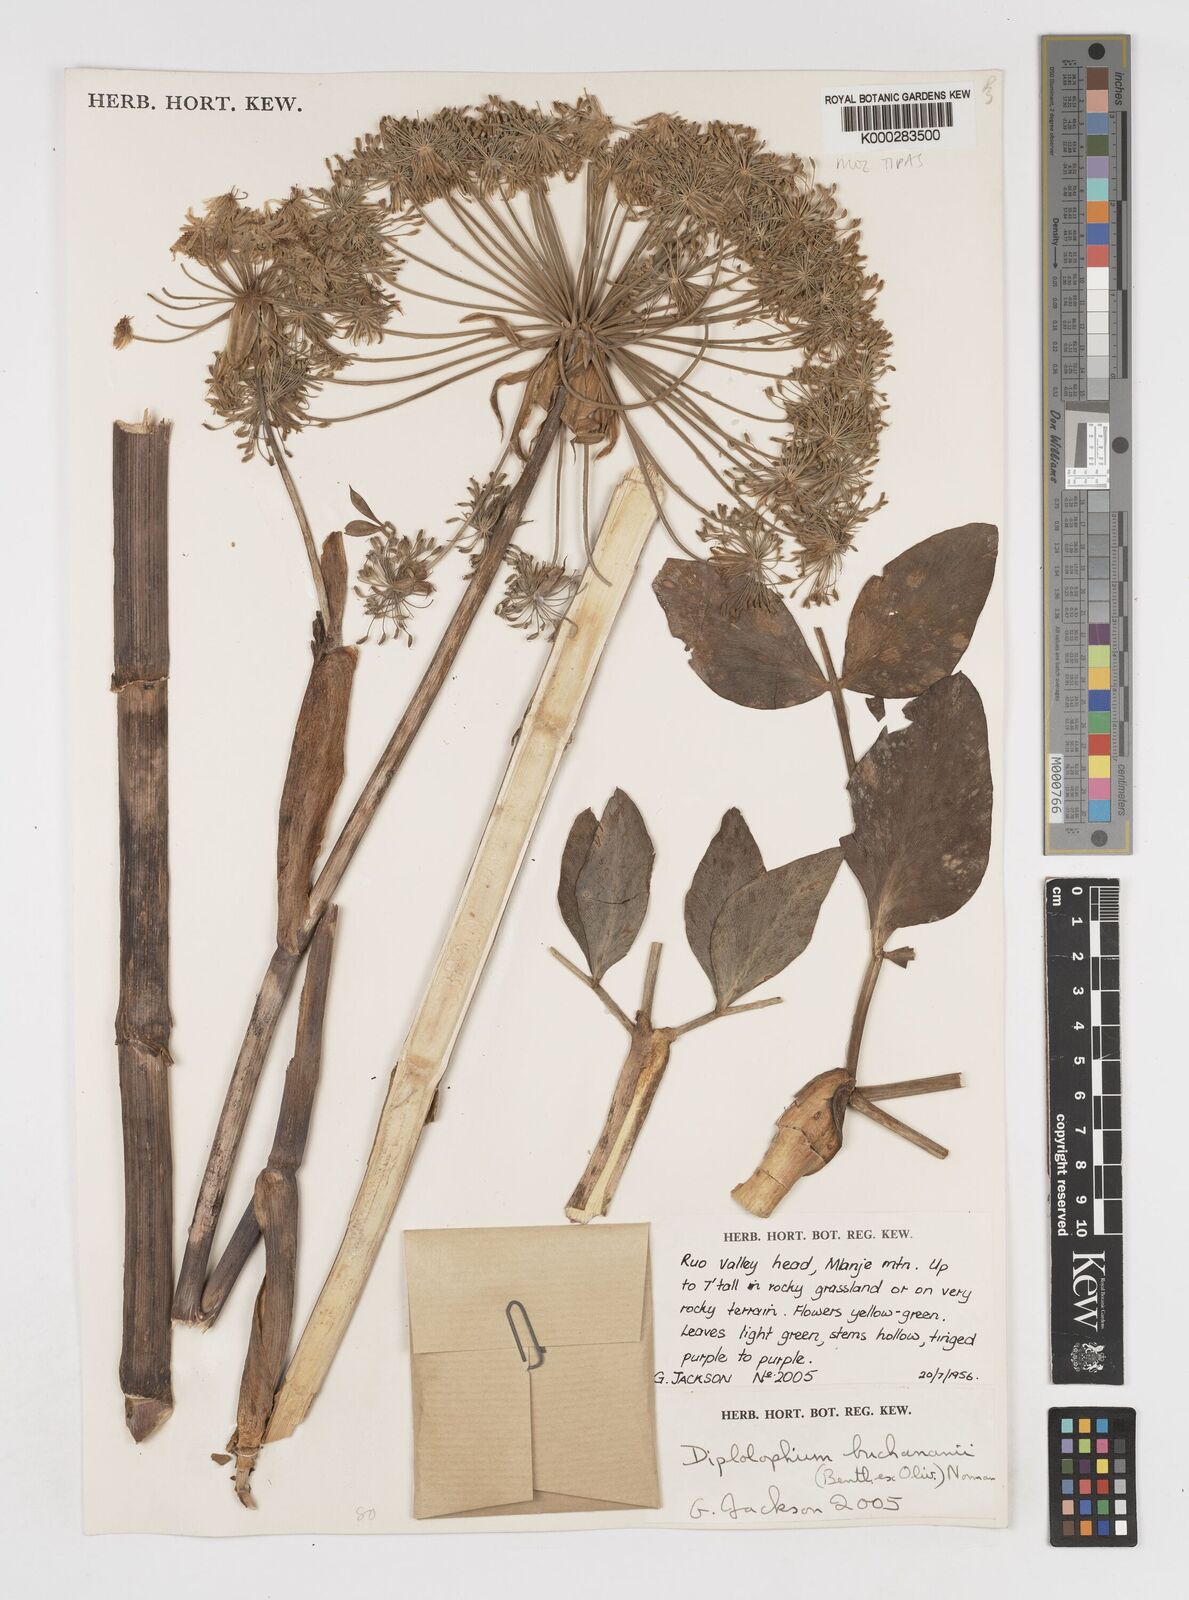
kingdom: Plantae
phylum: Tracheophyta
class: Magnoliopsida
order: Apiales
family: Apiaceae
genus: Diplolophium
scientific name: Diplolophium buchananii
